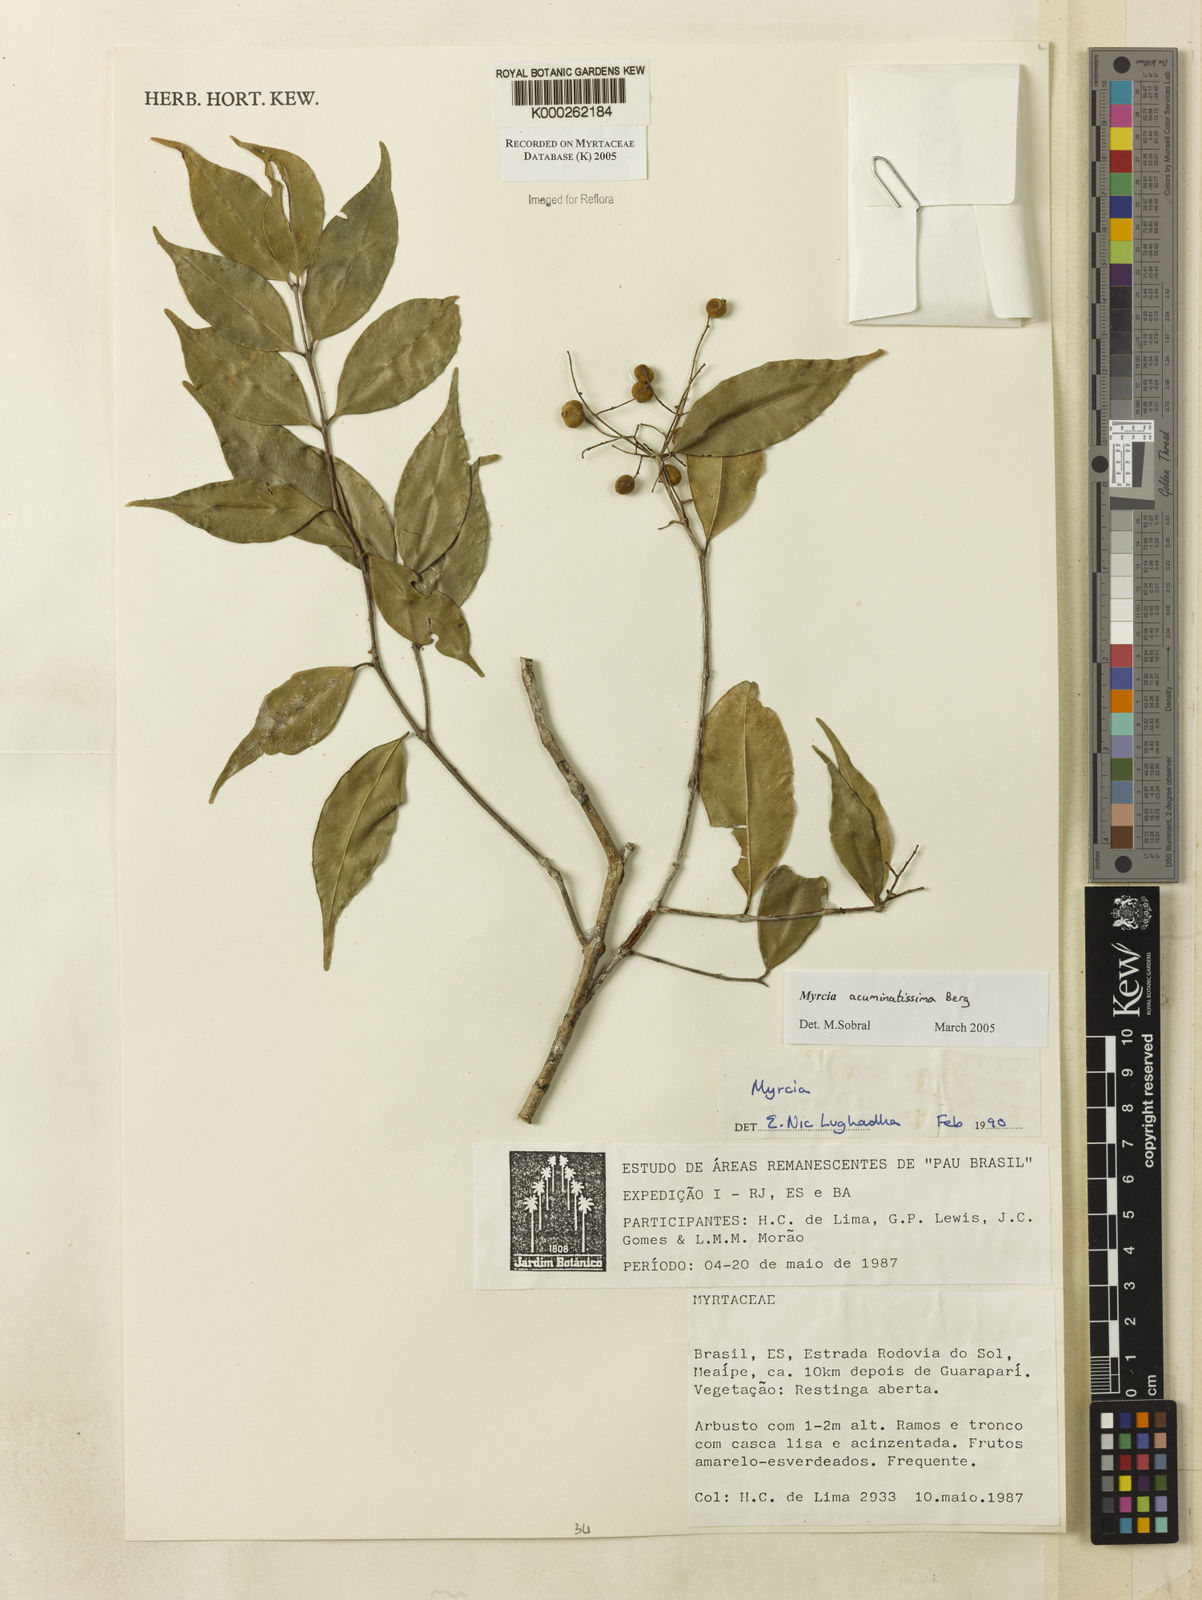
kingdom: Plantae
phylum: Tracheophyta
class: Magnoliopsida
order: Myrtales
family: Myrtaceae
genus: Myrcia
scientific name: Myrcia racemosa
